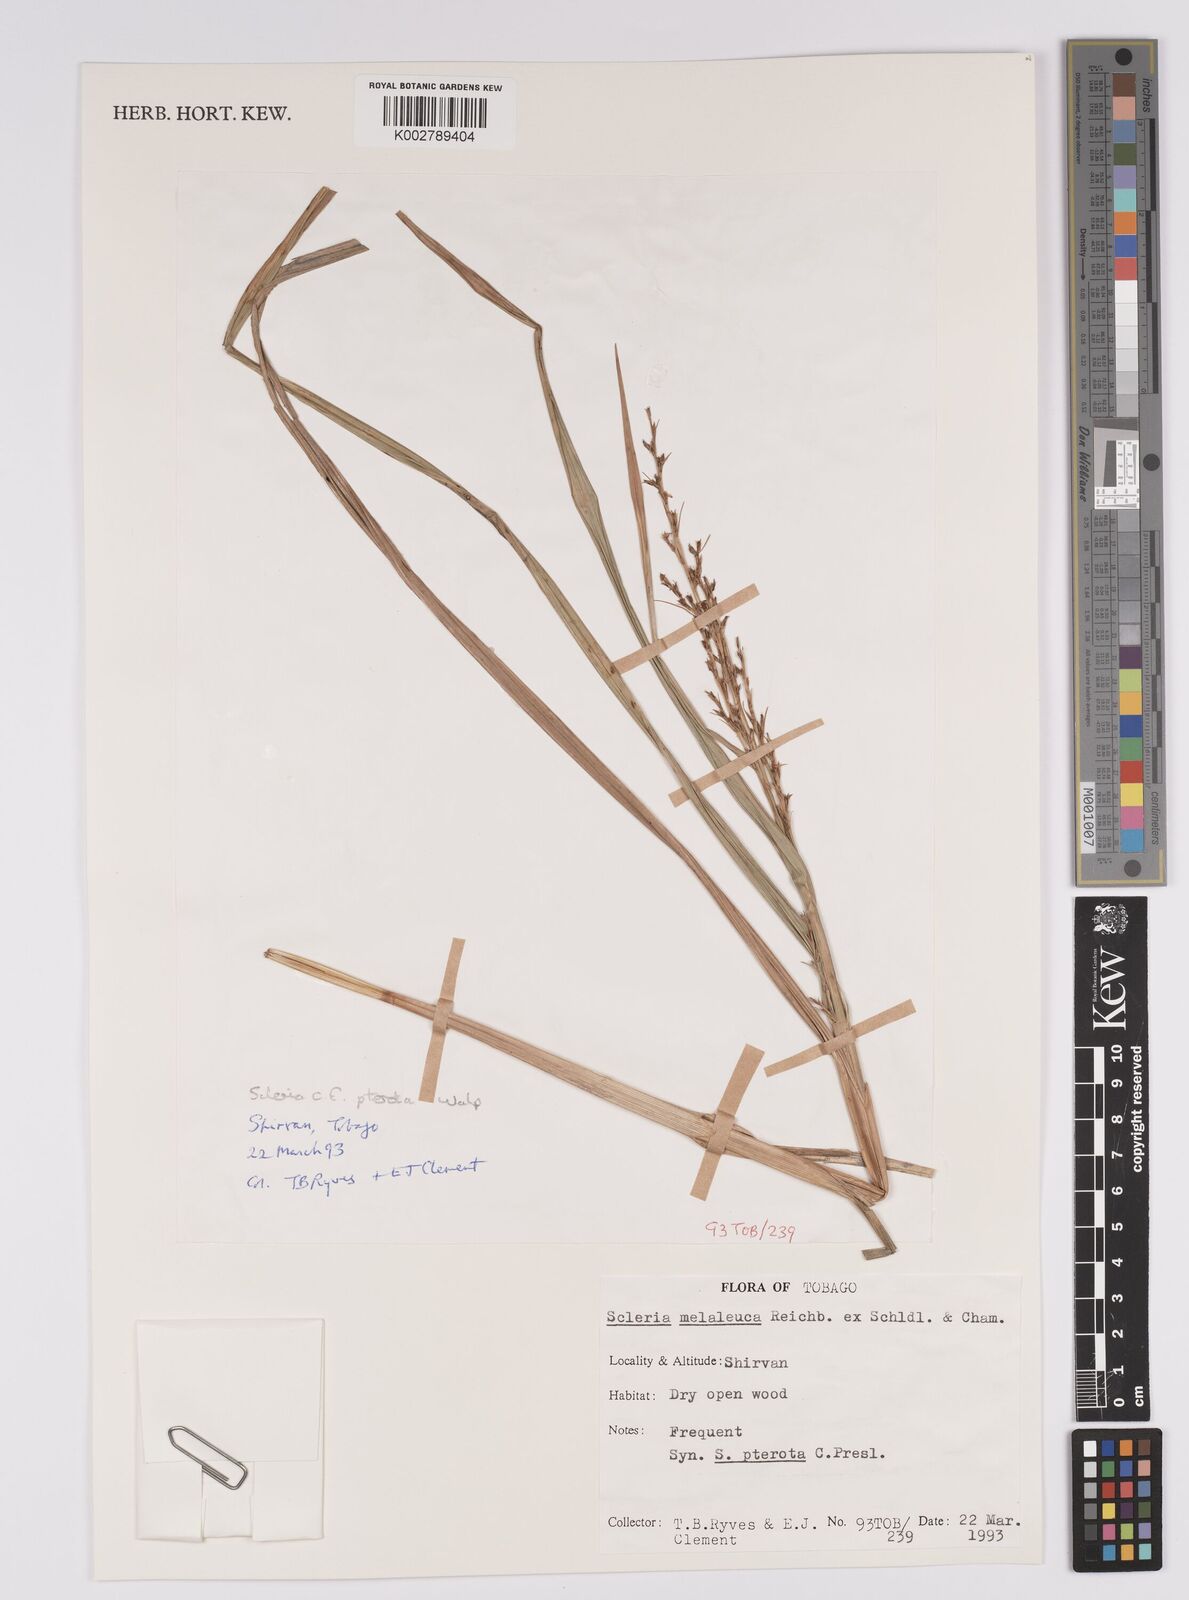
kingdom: Plantae
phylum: Tracheophyta
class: Liliopsida
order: Poales
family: Cyperaceae
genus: Scleria
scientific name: Scleria gaertneri
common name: Cortadera blanca
